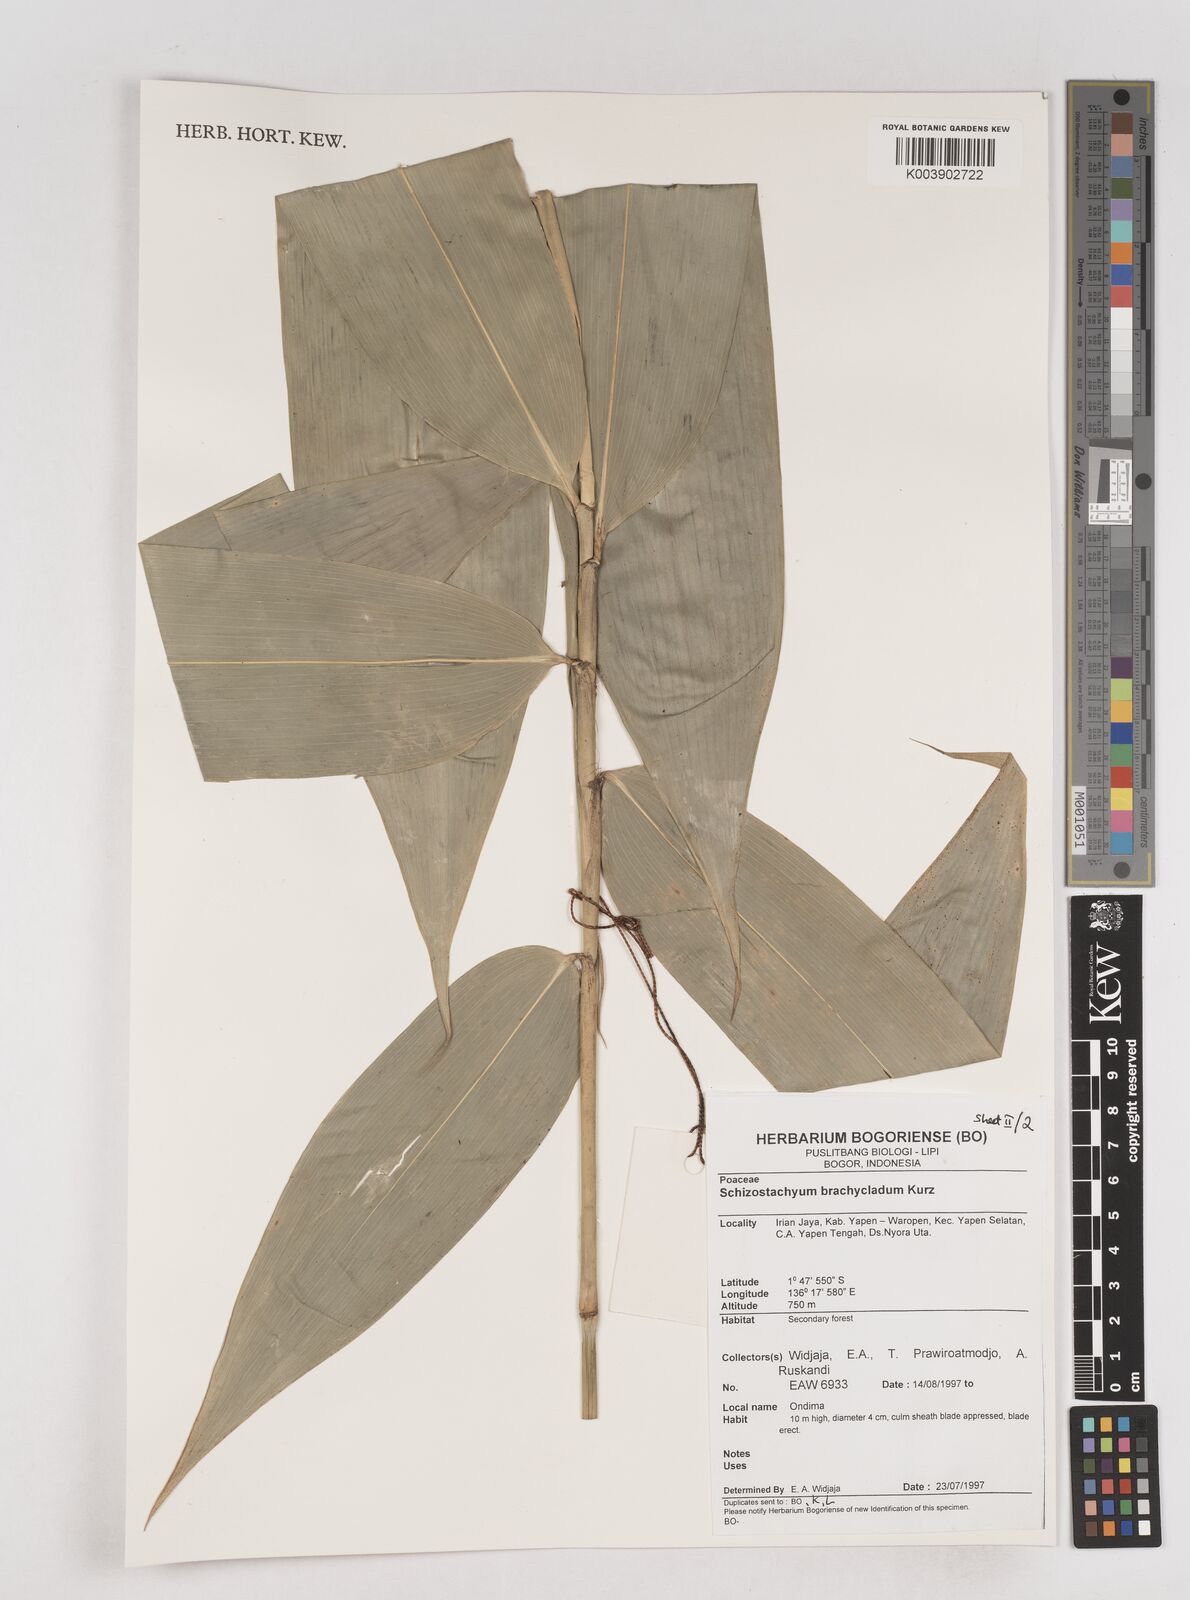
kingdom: Plantae
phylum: Tracheophyta
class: Liliopsida
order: Poales
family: Poaceae
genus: Schizostachyum
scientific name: Schizostachyum brachycladum
